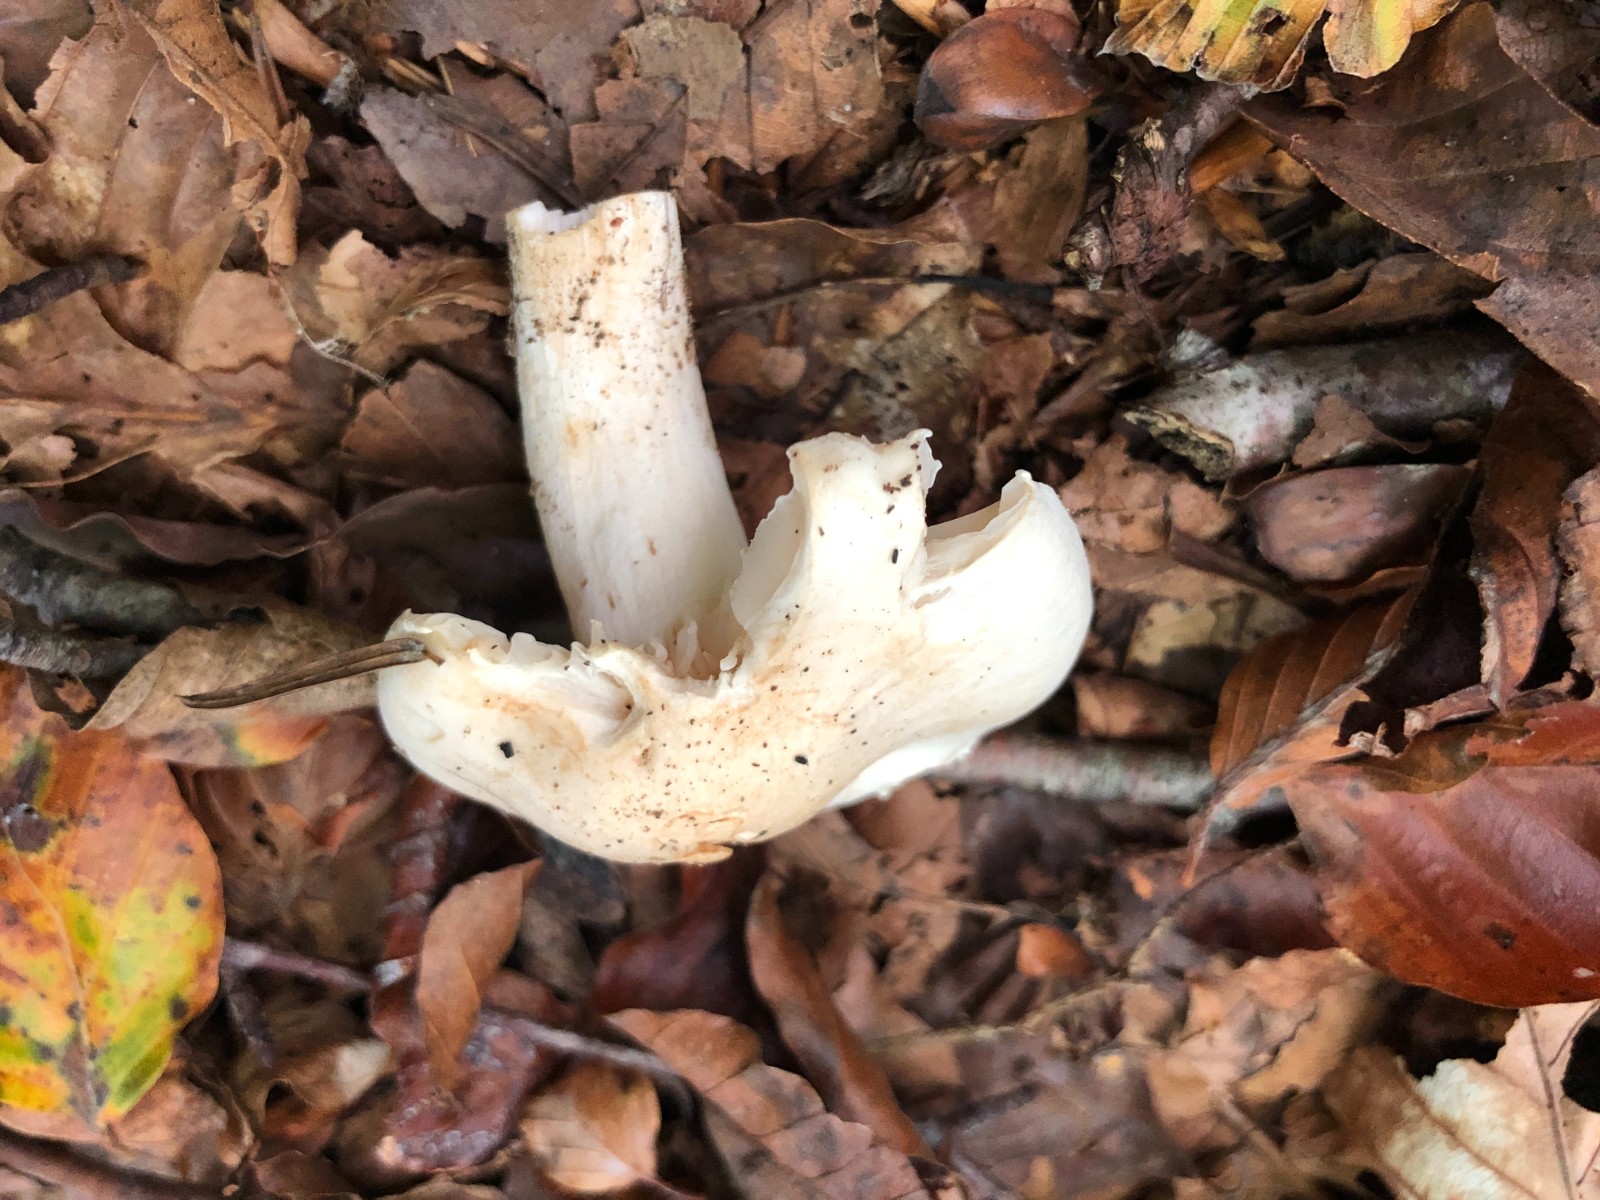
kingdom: Fungi
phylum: Basidiomycota
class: Agaricomycetes
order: Agaricales
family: Hygrophoraceae
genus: Hygrophorus
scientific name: Hygrophorus penarius
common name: spiselig sneglehat
